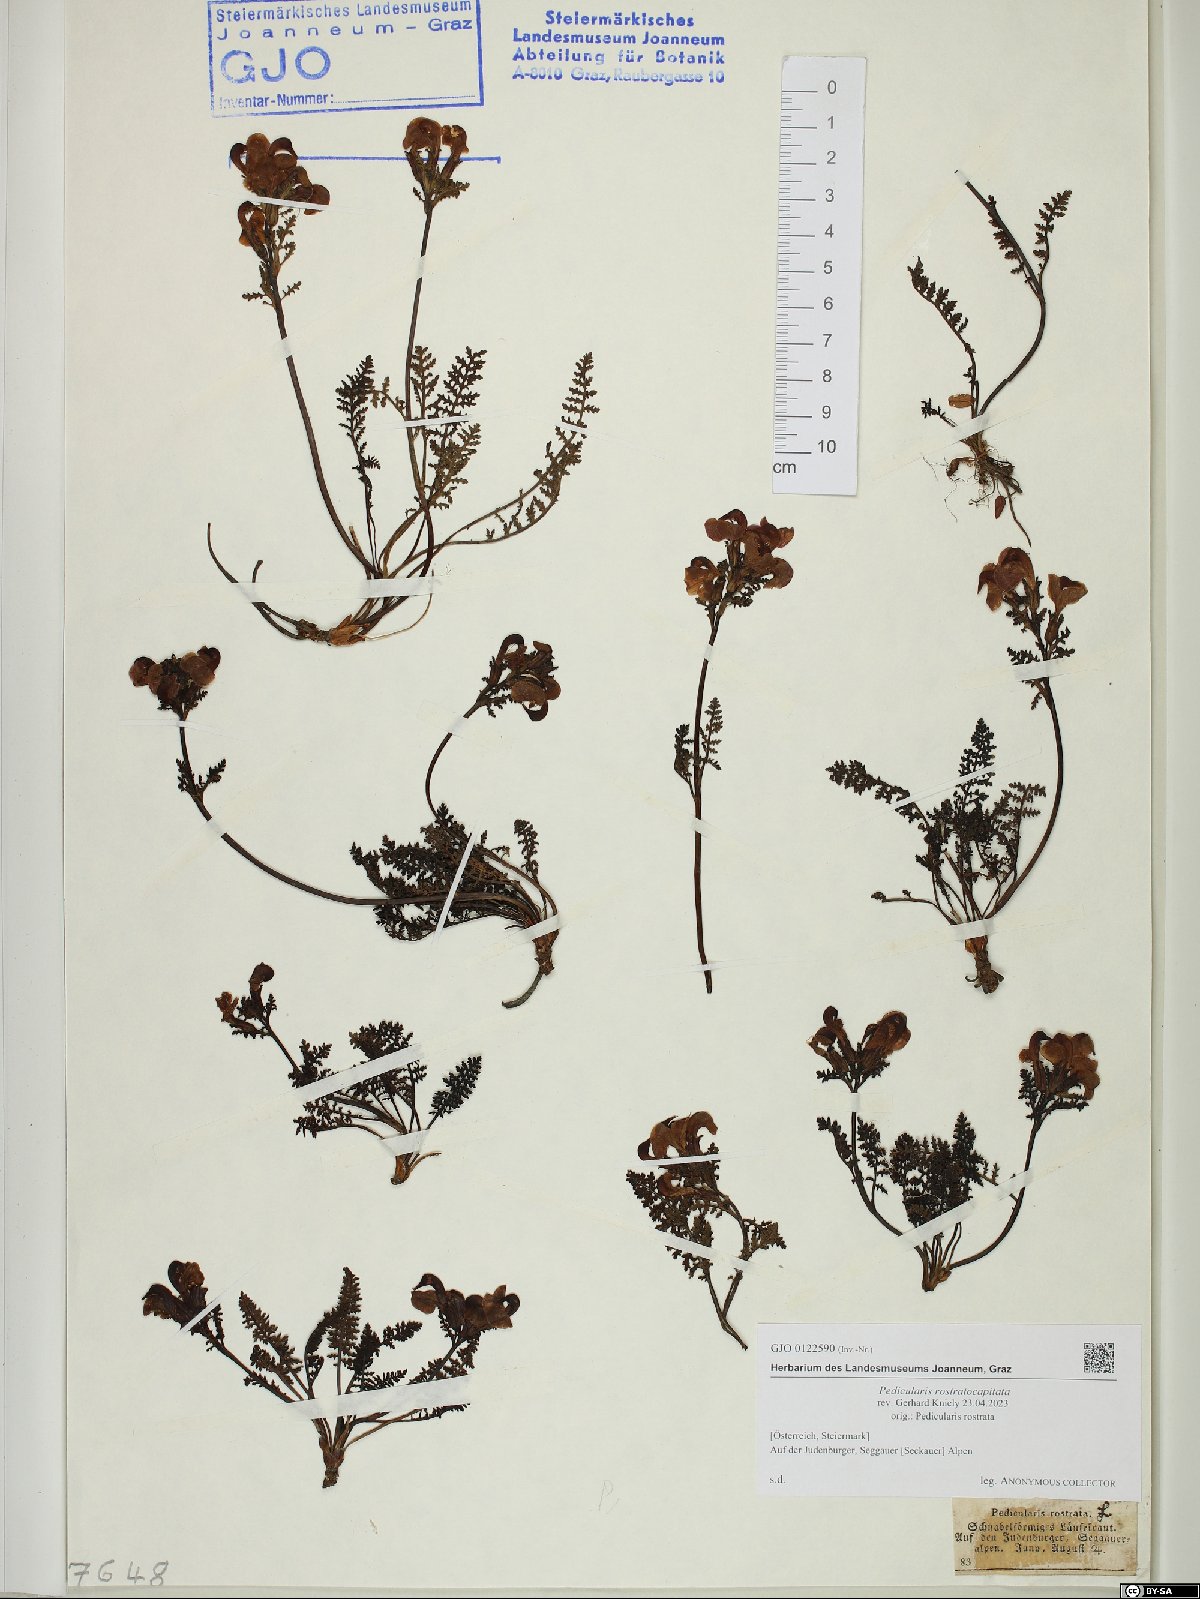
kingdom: Plantae
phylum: Tracheophyta
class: Magnoliopsida
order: Lamiales
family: Orobanchaceae
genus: Pedicularis
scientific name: Pedicularis rostratocapitata
